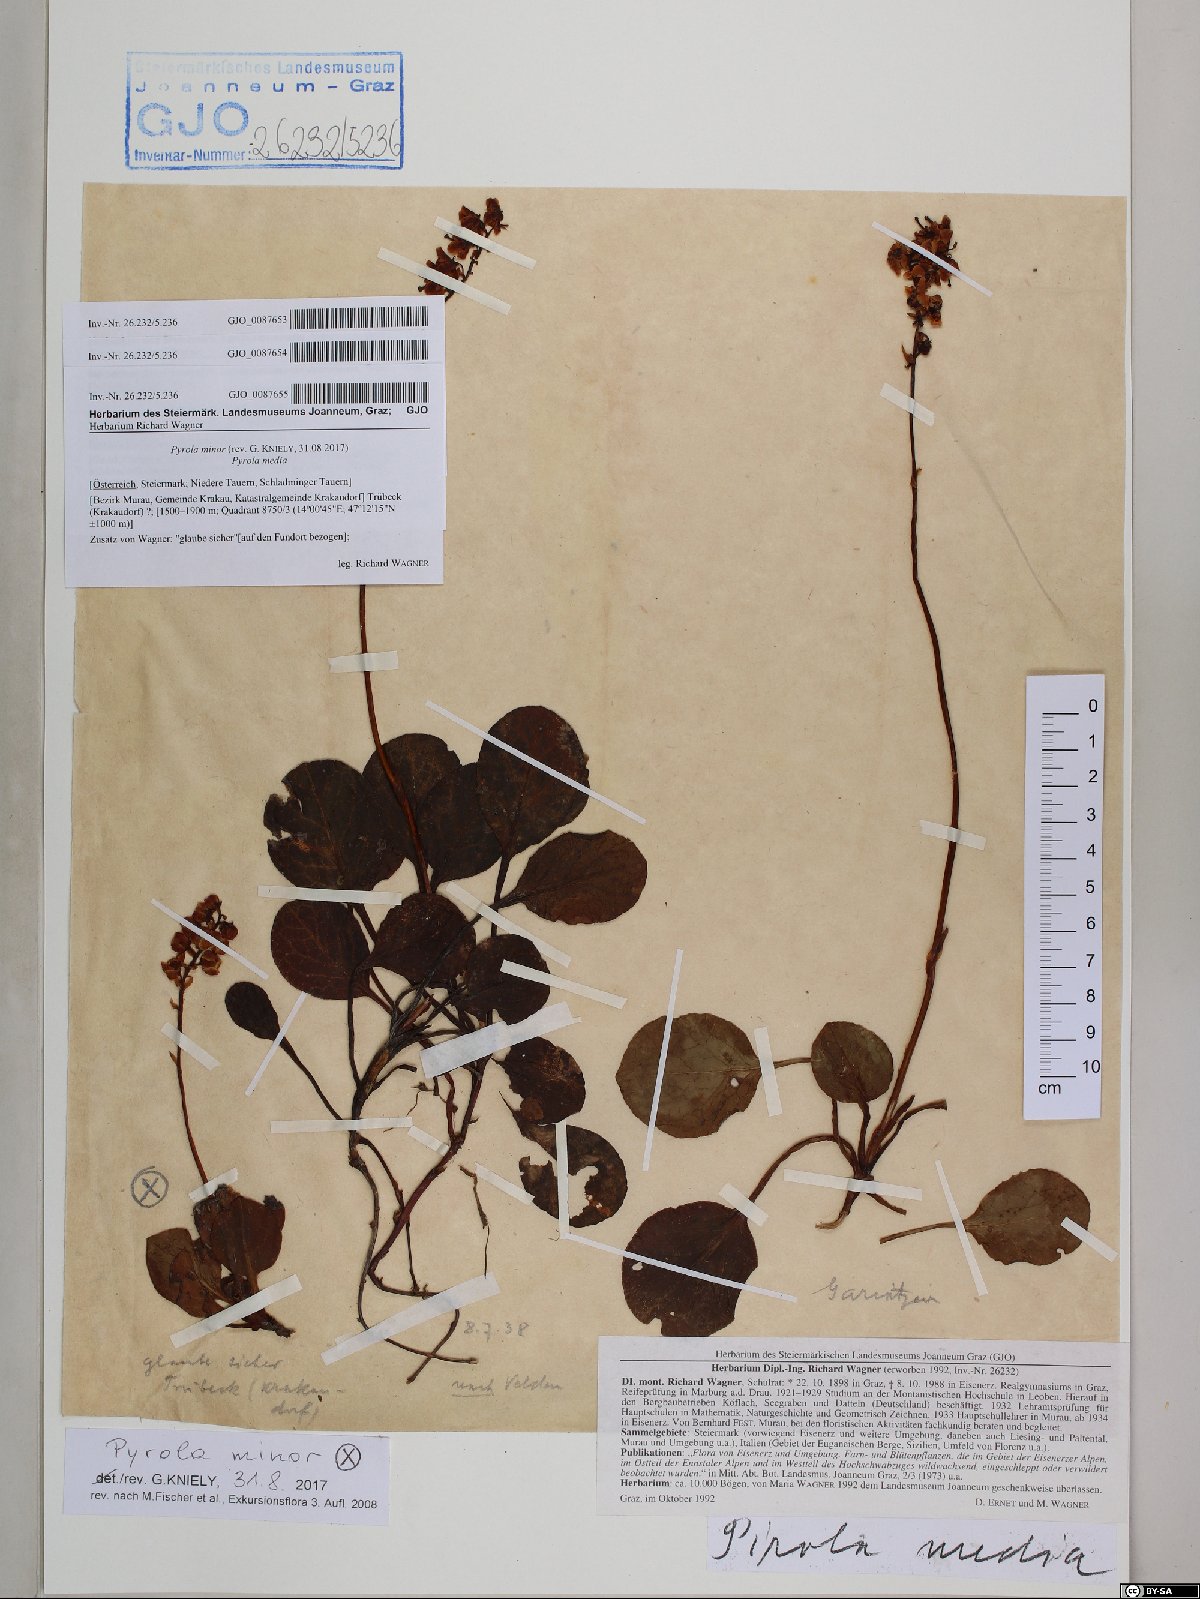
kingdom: Plantae
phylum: Tracheophyta
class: Magnoliopsida
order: Ericales
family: Ericaceae
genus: Pyrola
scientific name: Pyrola media
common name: Intermediate wintergreen
